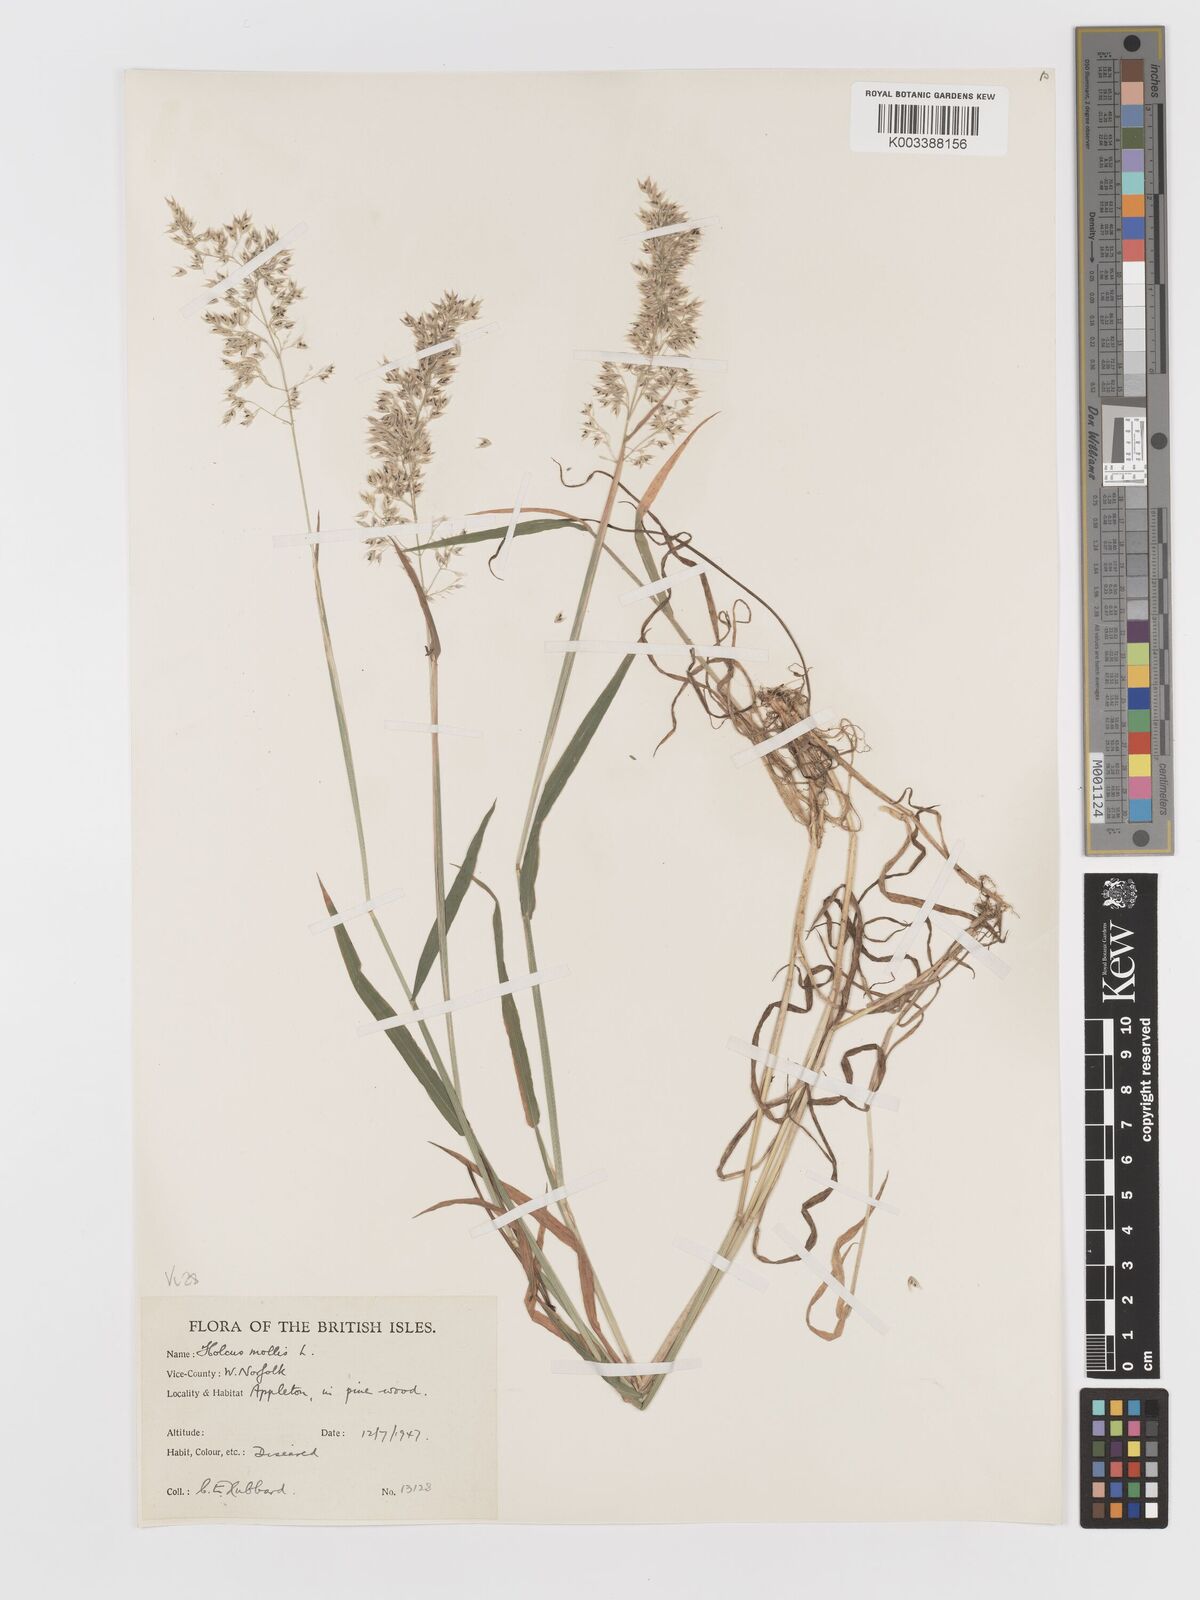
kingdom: Plantae
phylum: Tracheophyta
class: Liliopsida
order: Poales
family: Poaceae
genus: Holcus
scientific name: Holcus mollis
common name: Creeping velvetgrass
